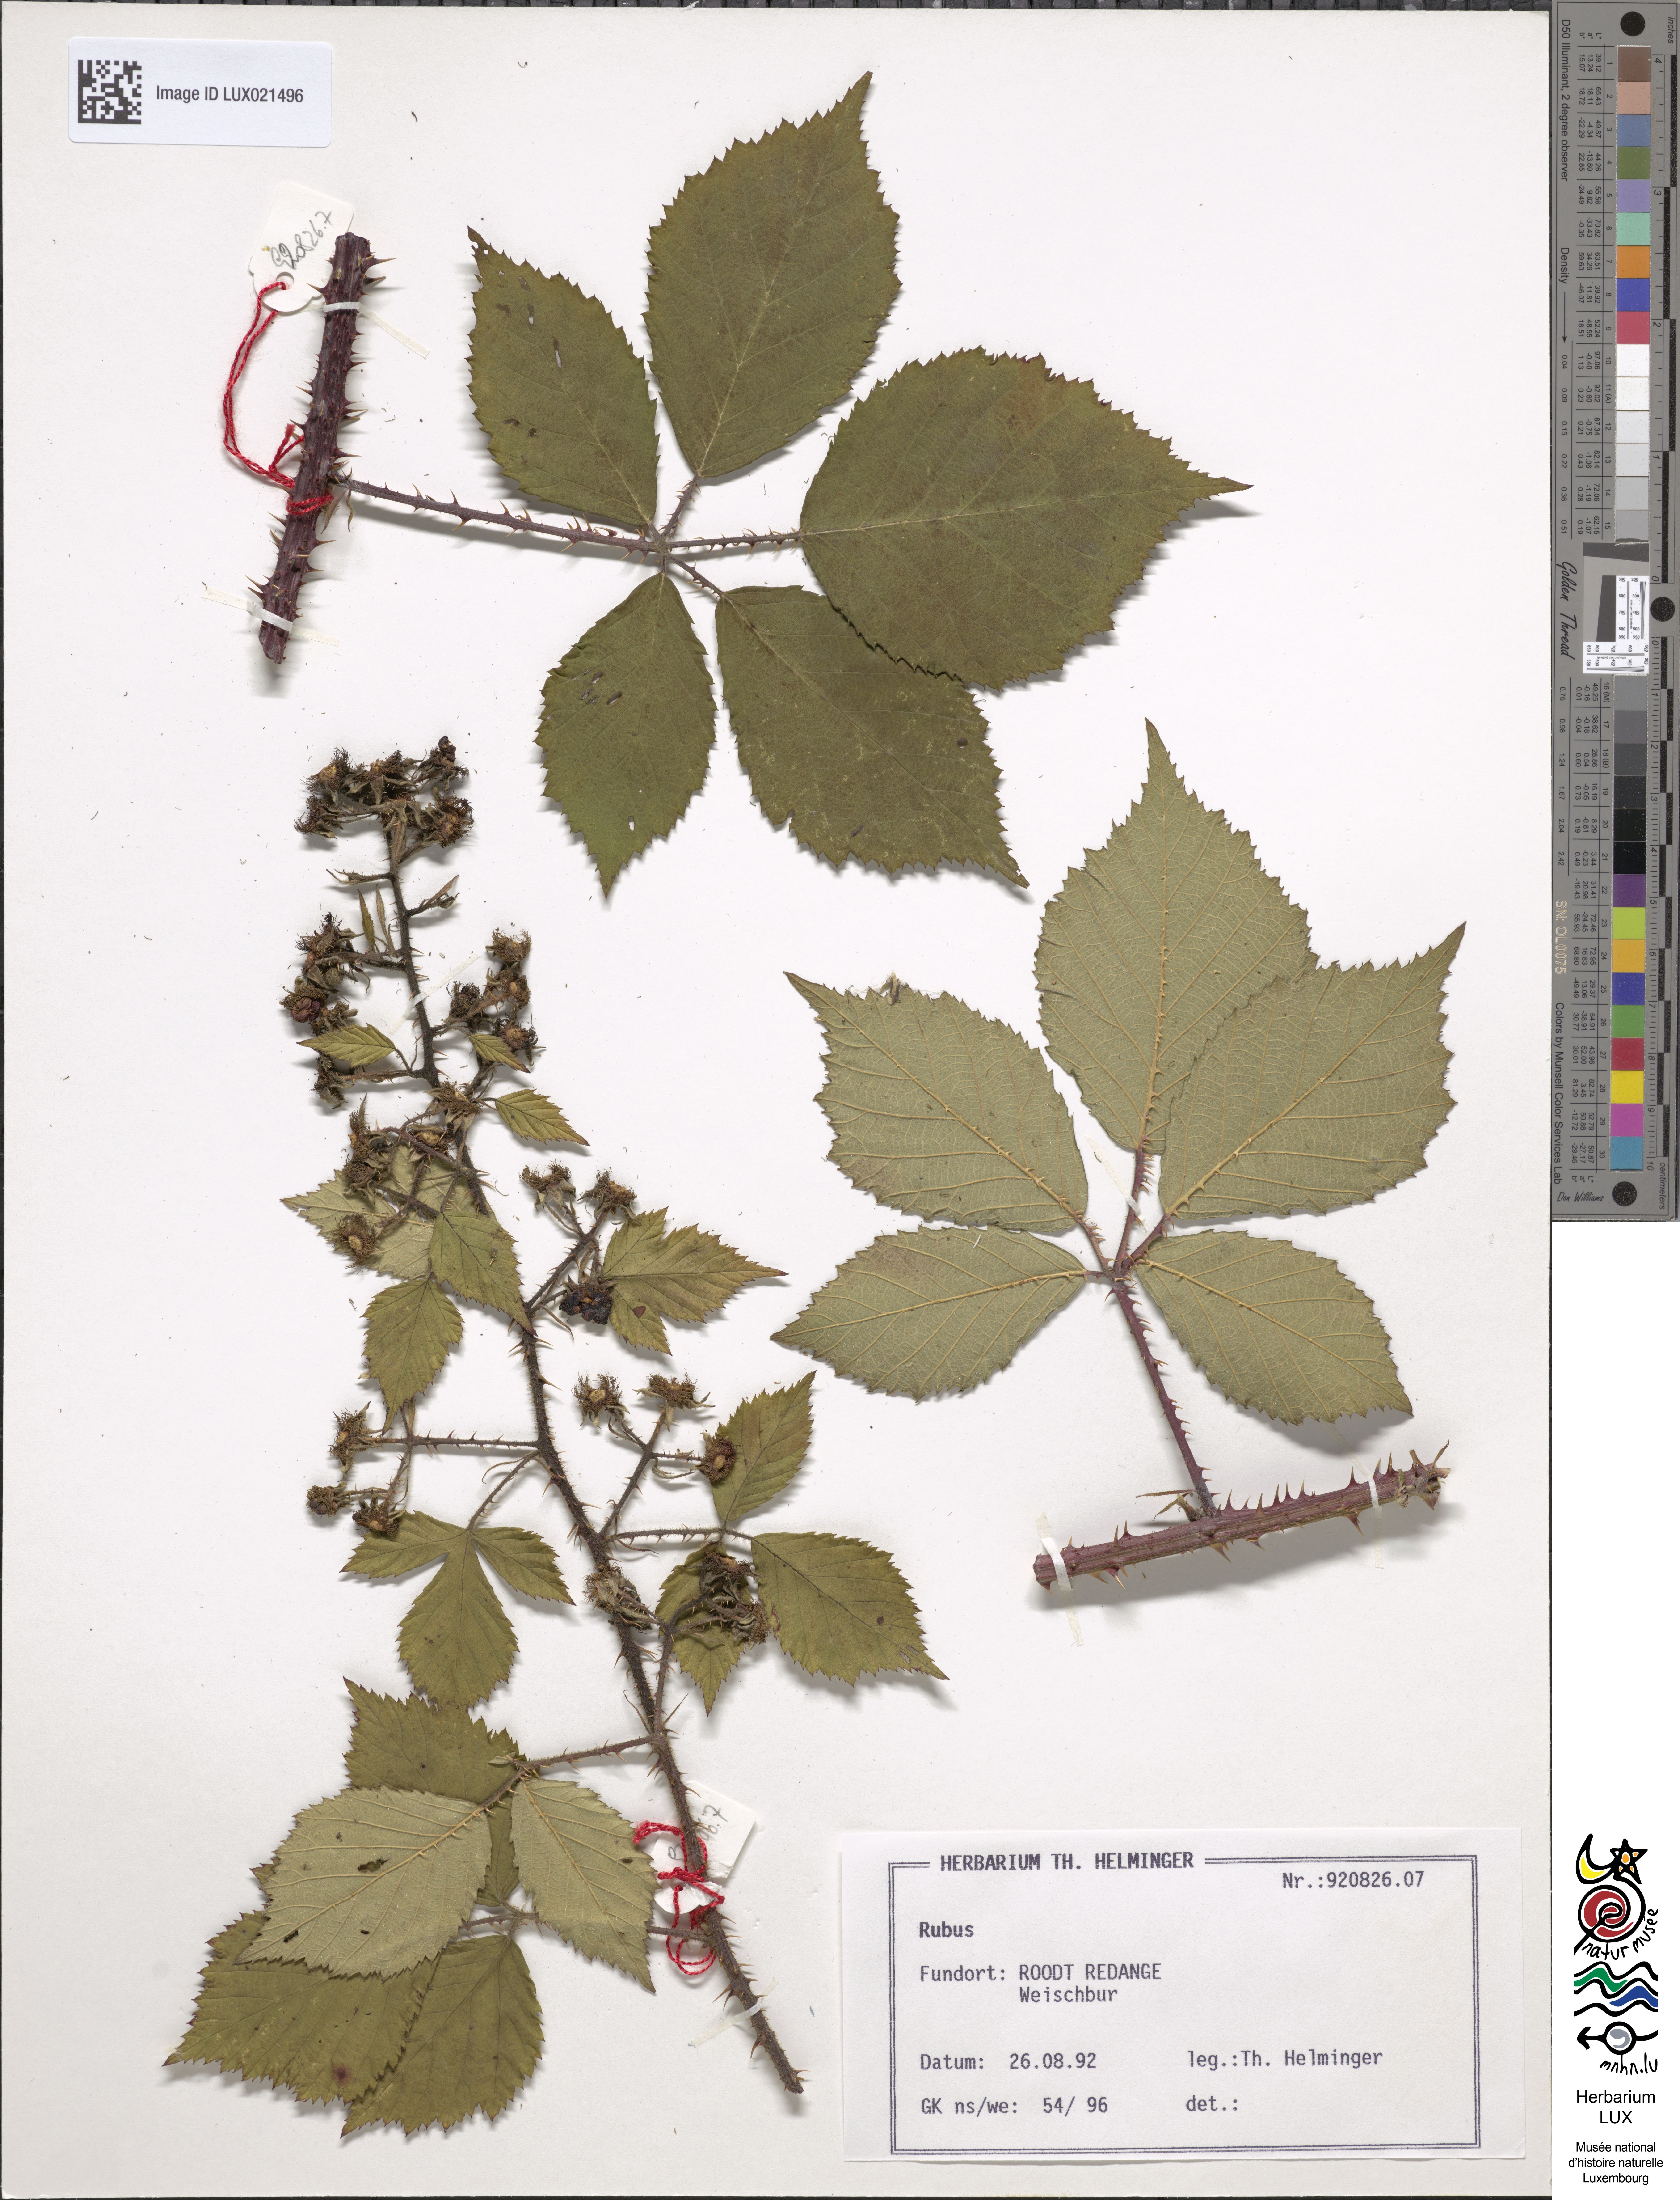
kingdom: Plantae
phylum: Tracheophyta
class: Magnoliopsida
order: Rosales
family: Rosaceae
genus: Rubus
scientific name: Rubus
